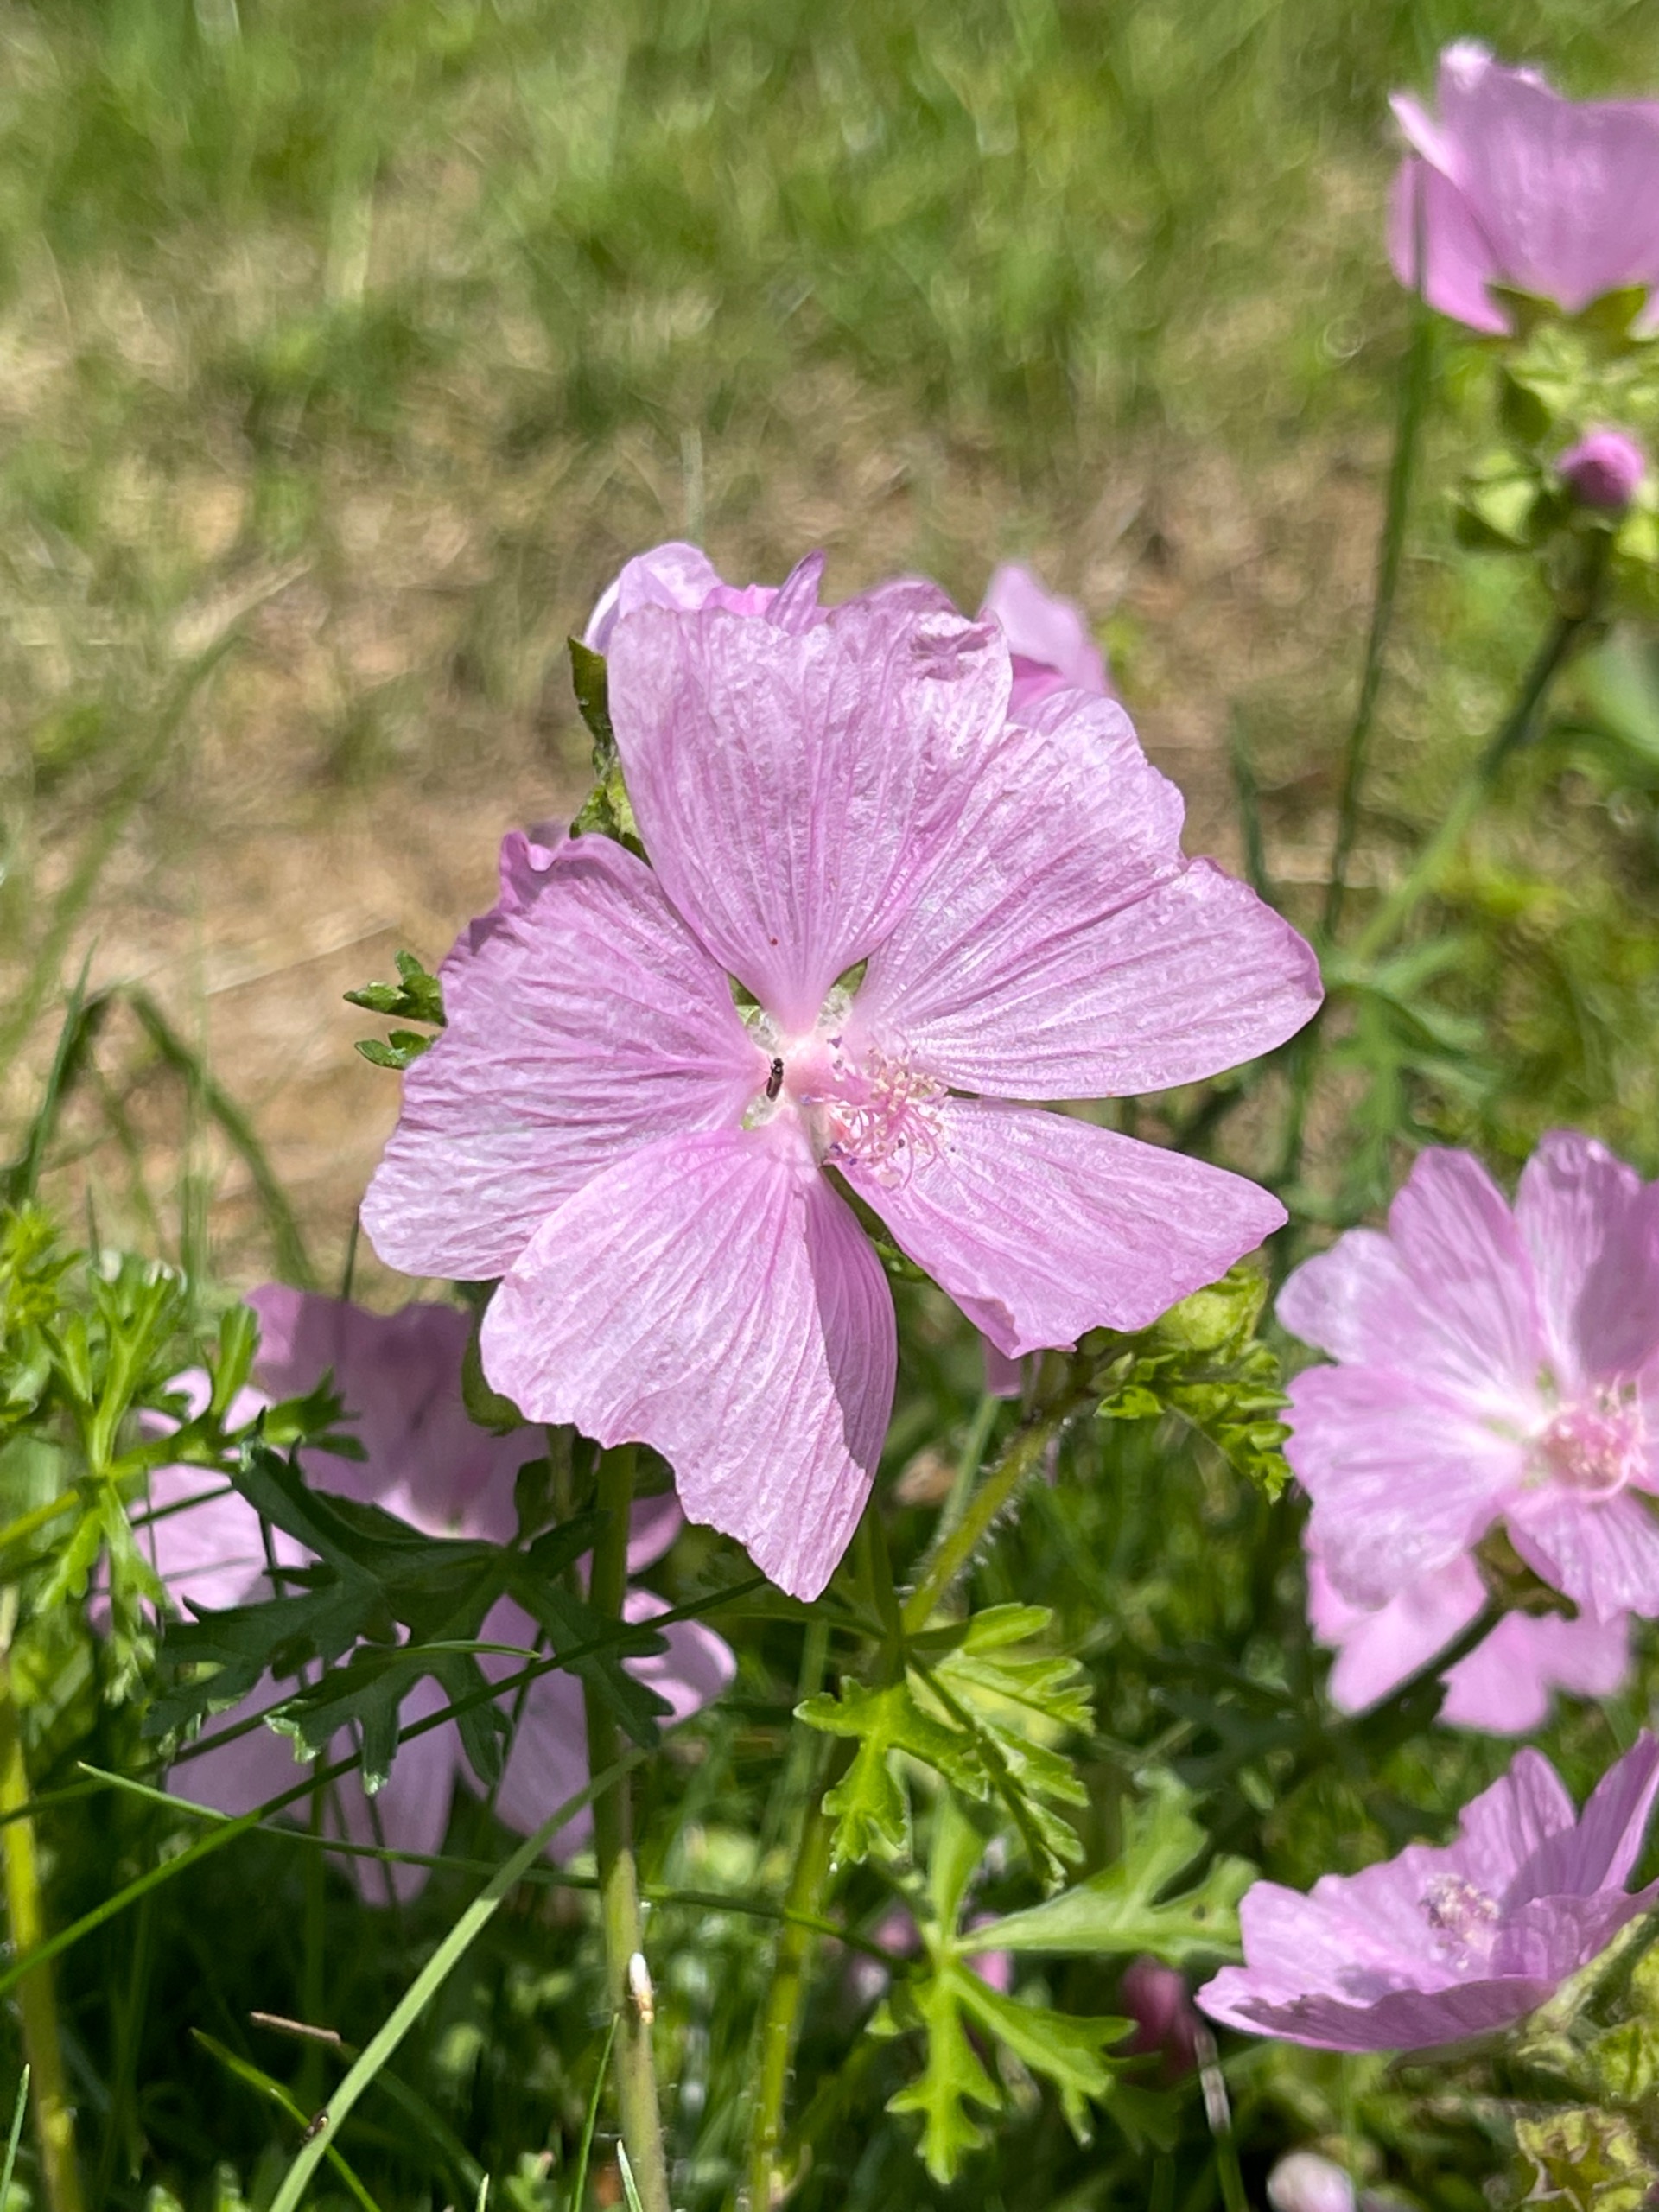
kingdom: Plantae
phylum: Tracheophyta
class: Magnoliopsida
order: Malvales
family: Malvaceae
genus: Malva
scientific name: Malva moschata
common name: Moskus-katost
